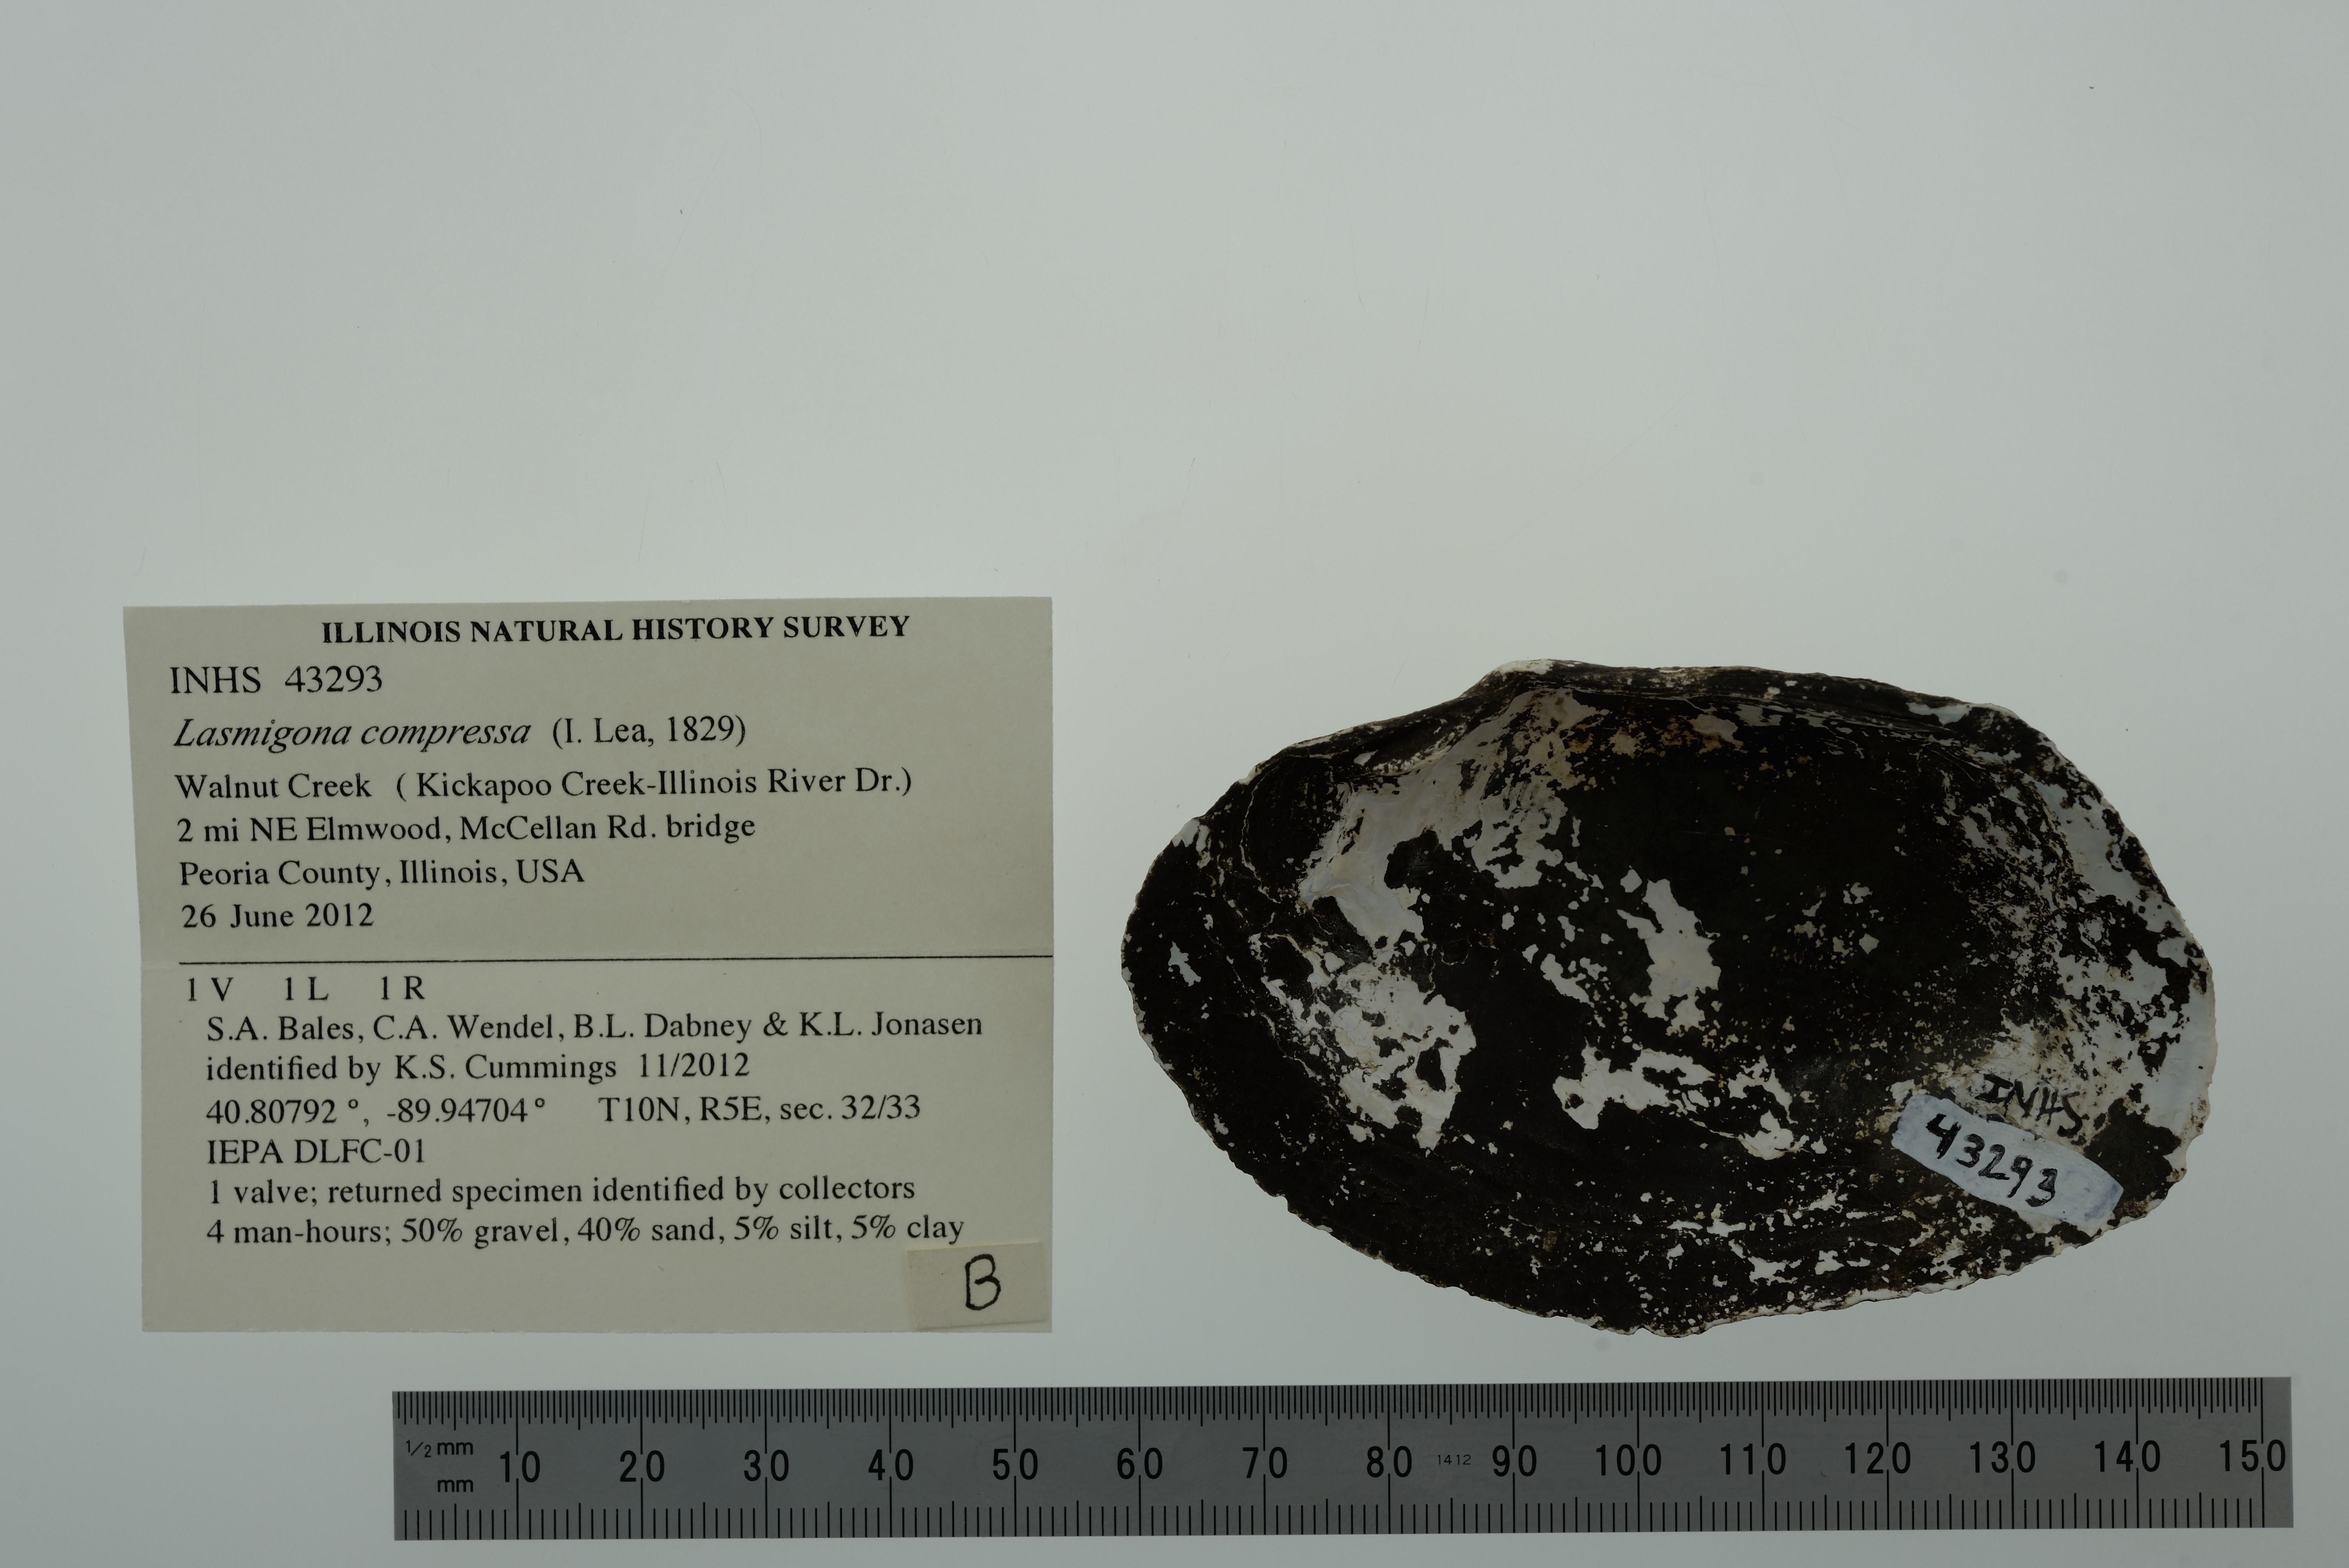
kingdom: Animalia
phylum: Mollusca
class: Bivalvia
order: Unionida
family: Unionidae
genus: Lasmigona
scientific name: Lasmigona compressa
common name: Creek heelsplitter
